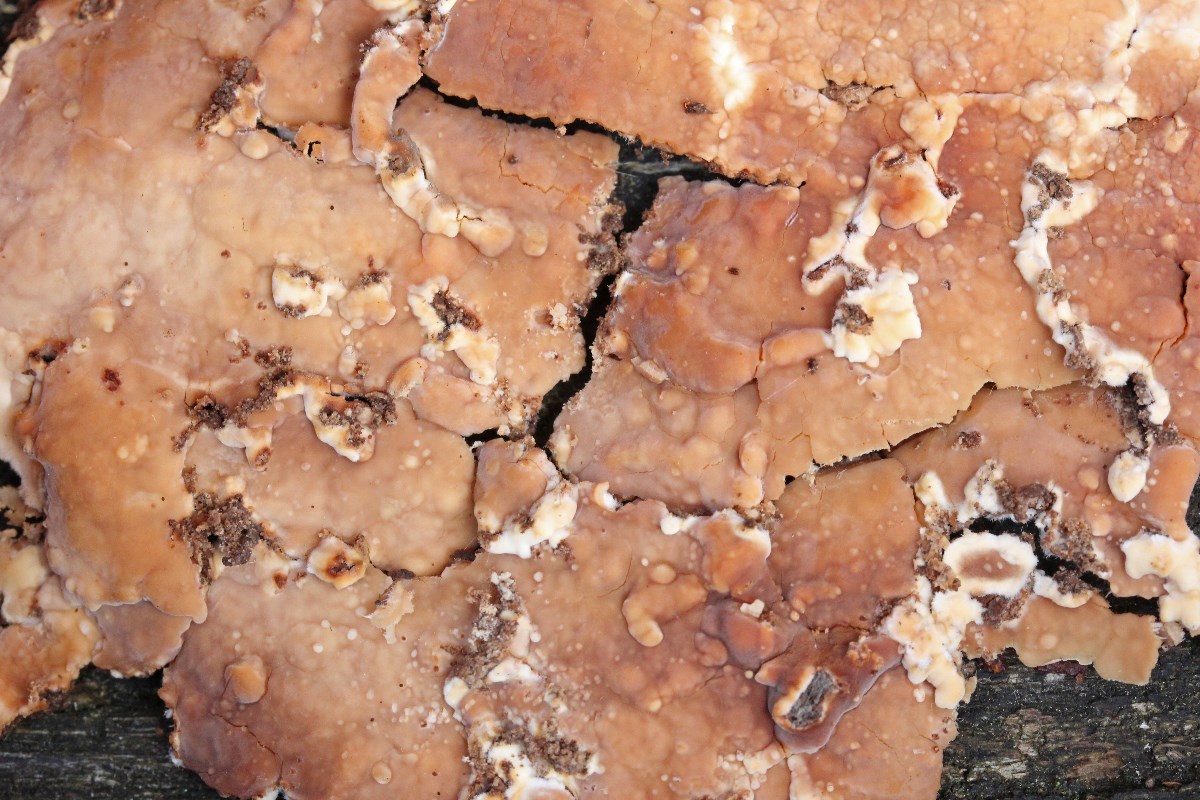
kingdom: Fungi
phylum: Basidiomycota
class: Agaricomycetes
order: Polyporales
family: Dacryobolaceae
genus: Dacryobolus
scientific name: Dacryobolus karstenii
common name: glat vulkanskorpe
